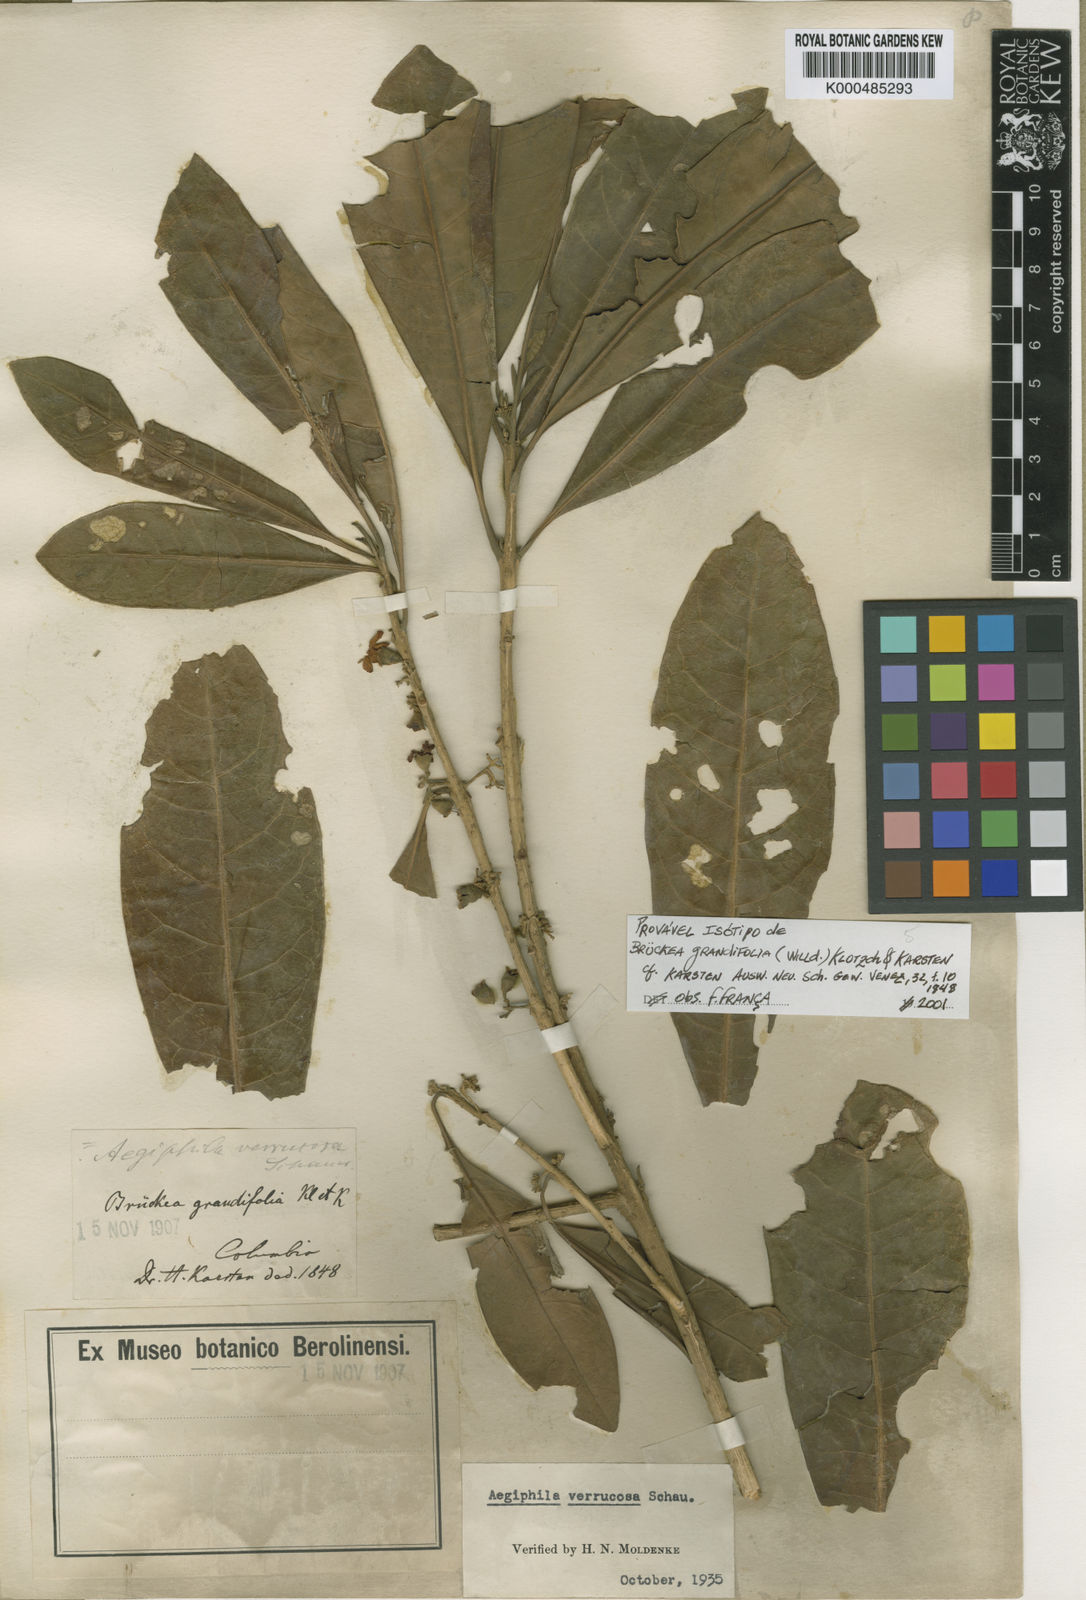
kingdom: Plantae
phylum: Tracheophyta
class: Magnoliopsida
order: Lamiales
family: Lamiaceae
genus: Aegiphila
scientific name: Aegiphila ternifolia
